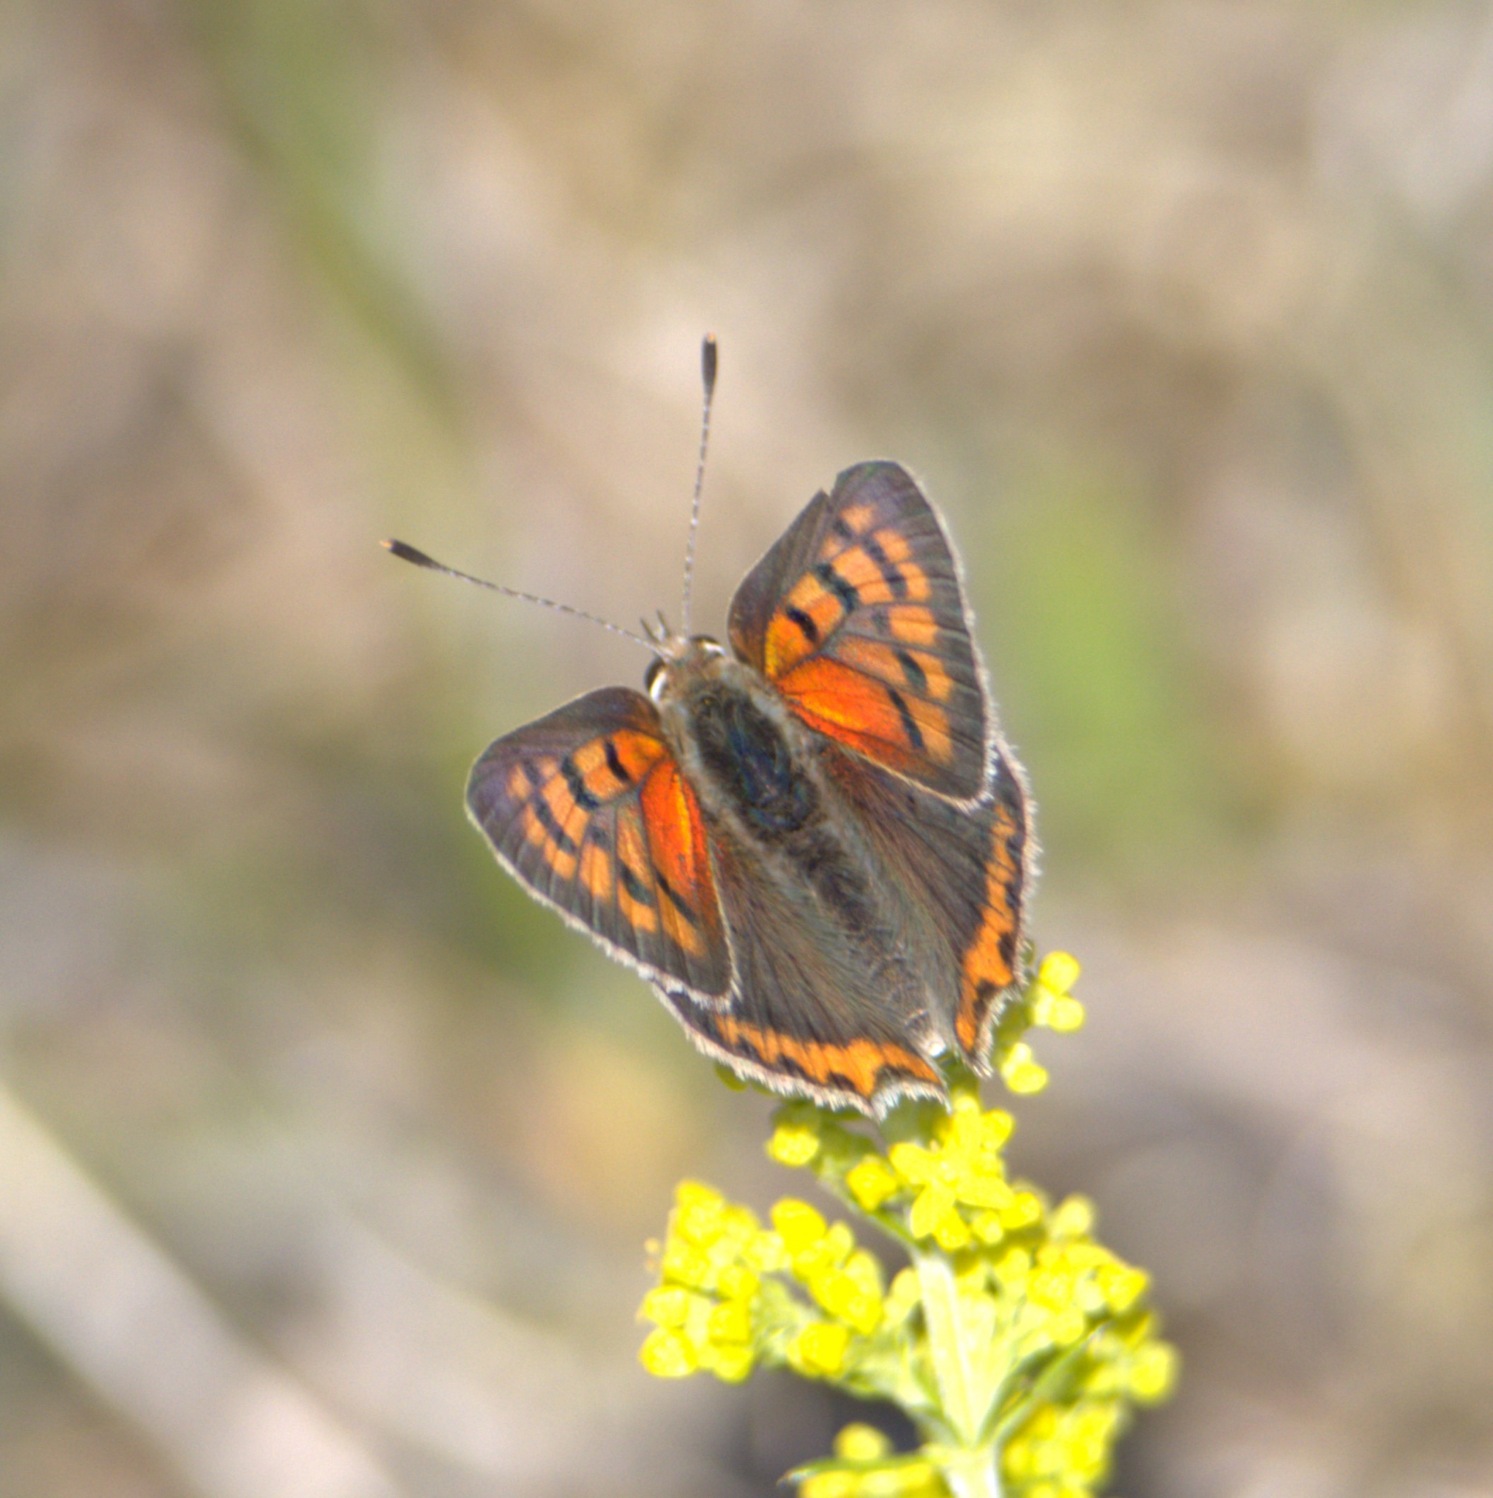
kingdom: Animalia
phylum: Arthropoda
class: Insecta
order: Lepidoptera
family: Lycaenidae
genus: Lycaena
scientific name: Lycaena phlaeas
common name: Lille ildfugl
